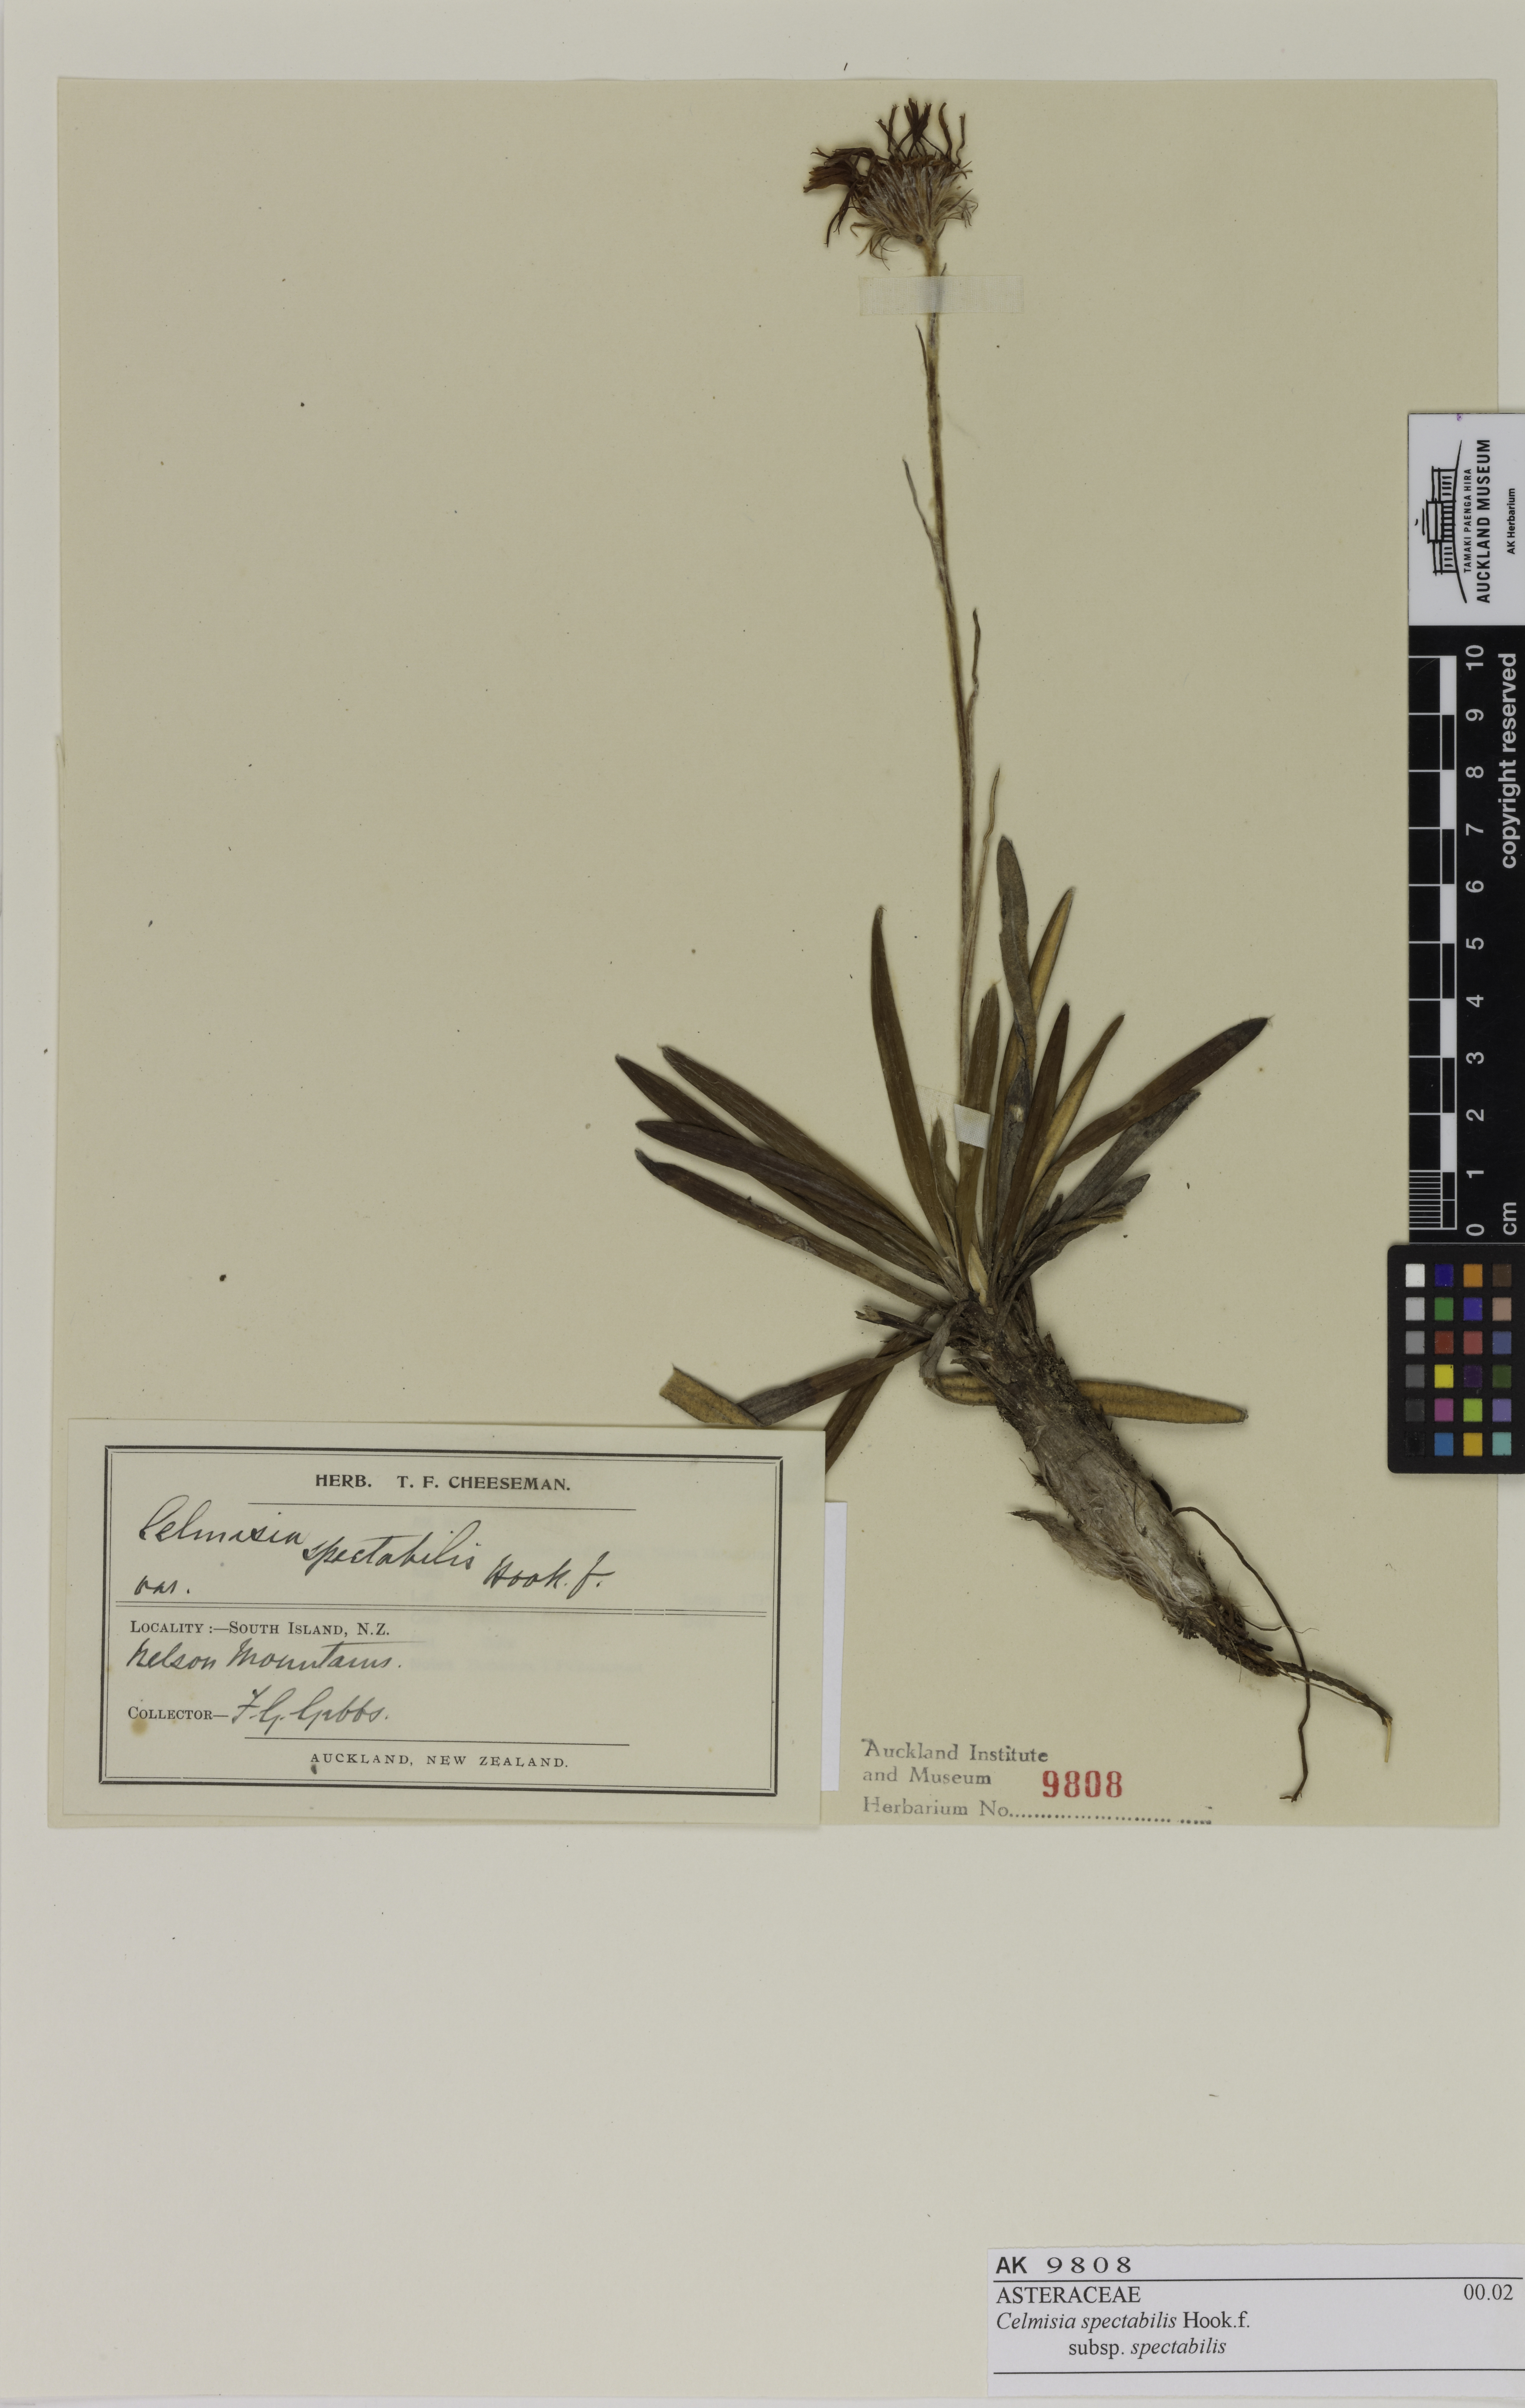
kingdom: Plantae
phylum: Tracheophyta
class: Magnoliopsida
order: Asterales
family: Asteraceae
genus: Celmisia
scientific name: Celmisia spectabilis
